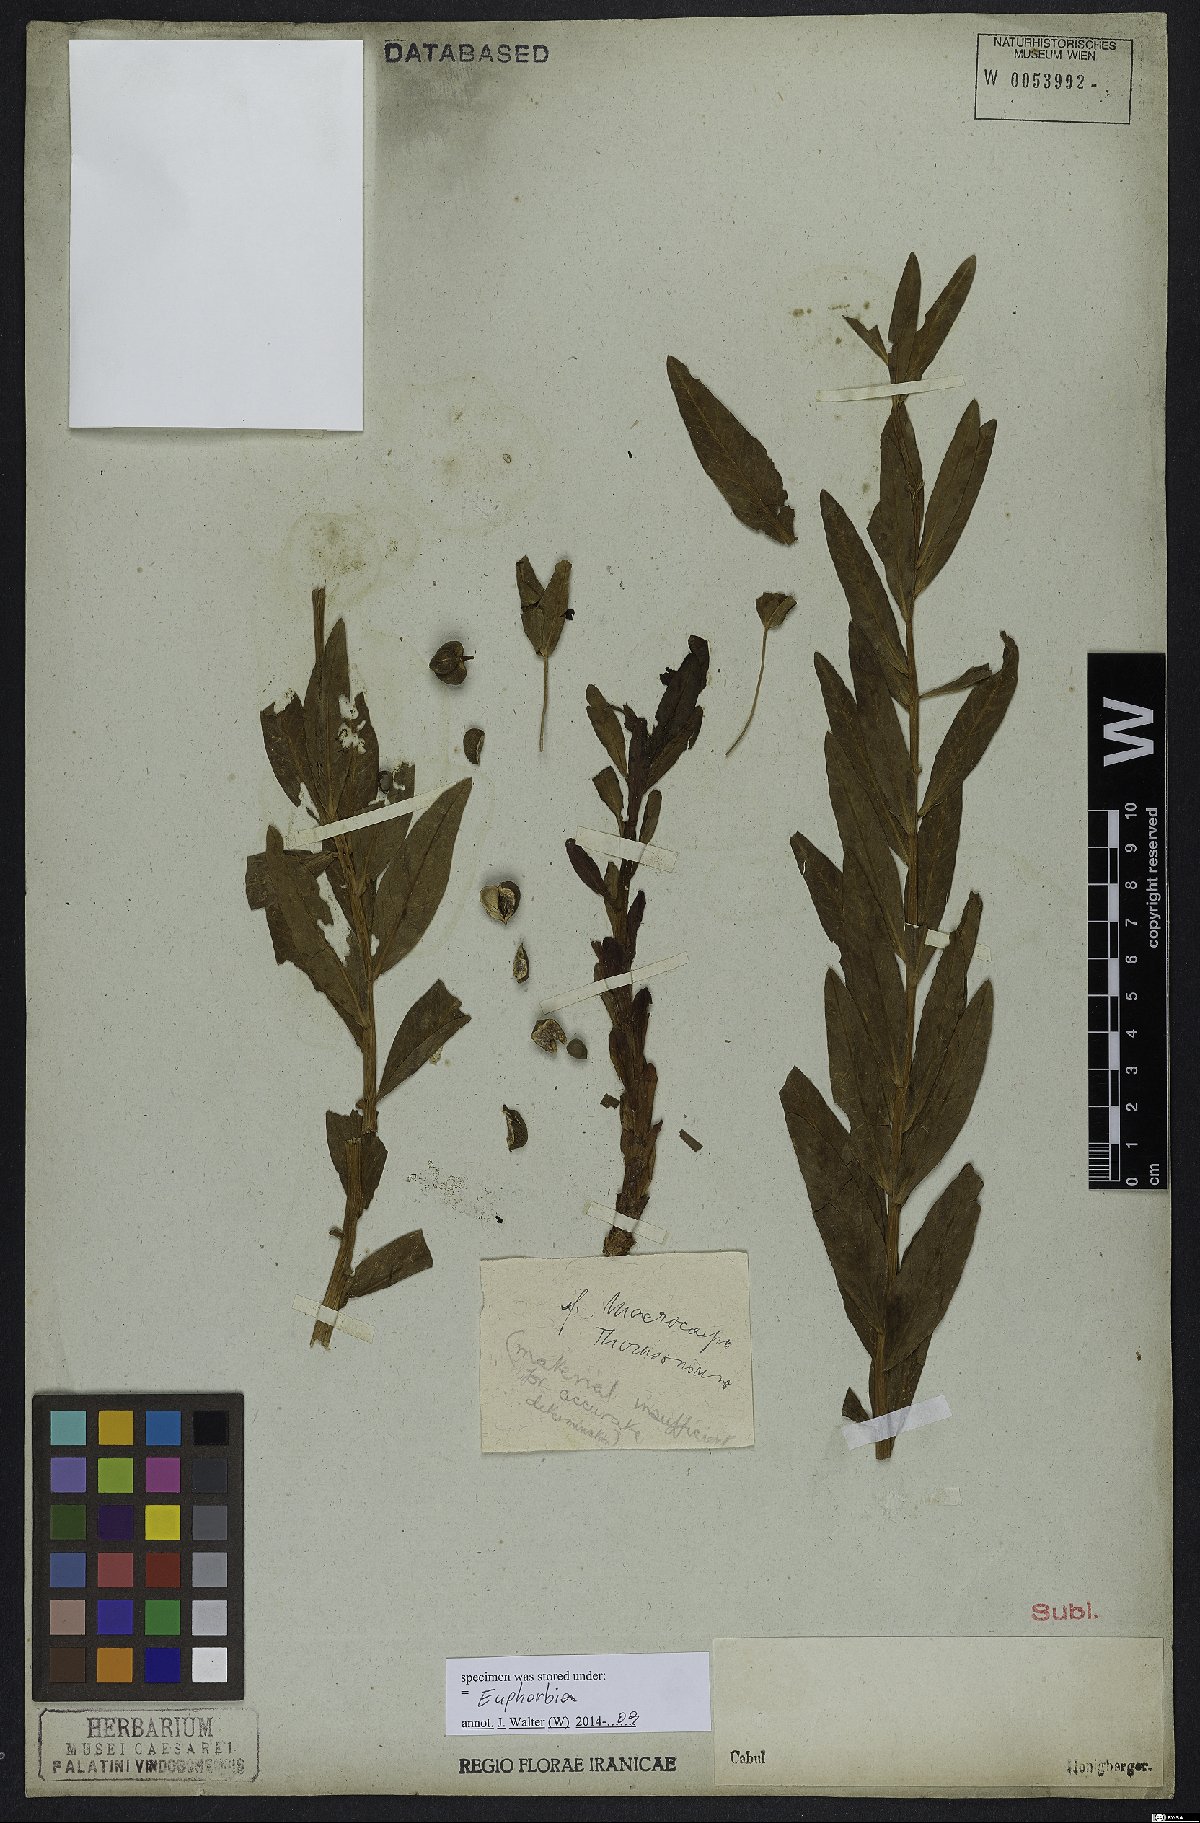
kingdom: Plantae
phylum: Tracheophyta
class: Magnoliopsida
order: Malpighiales
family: Euphorbiaceae
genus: Euphorbia
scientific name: Euphorbia
